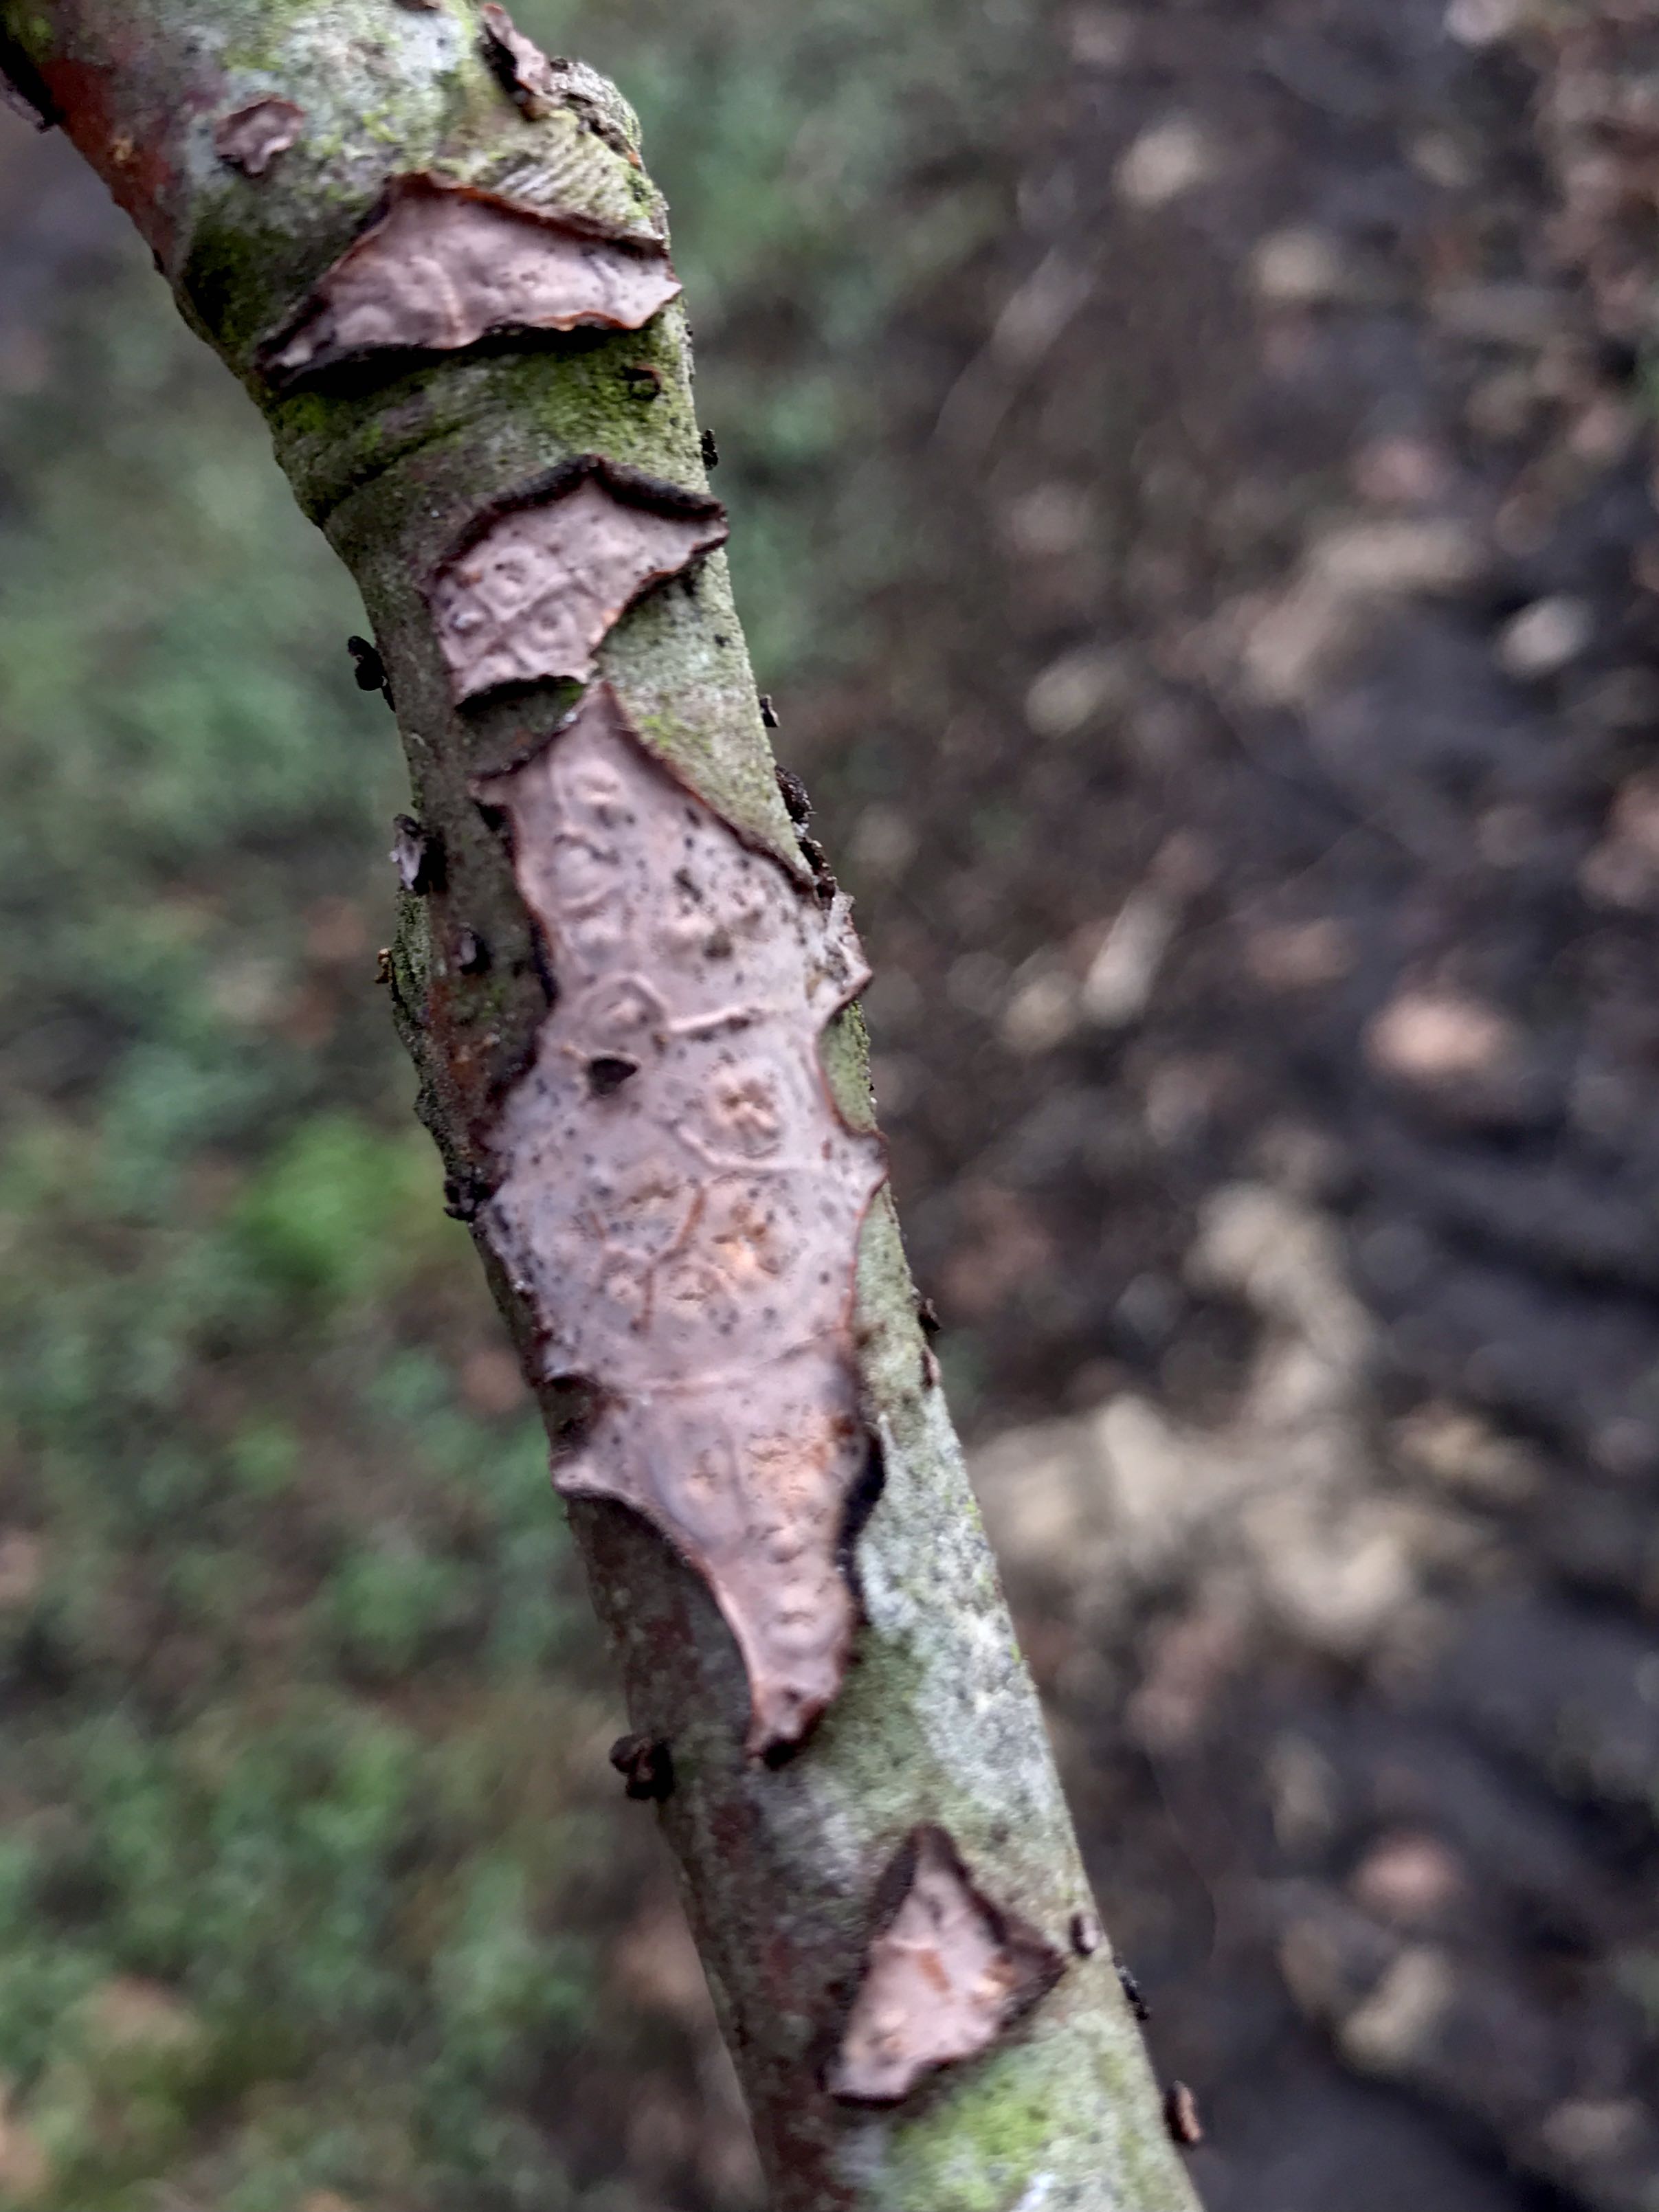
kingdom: Fungi
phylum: Basidiomycota
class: Agaricomycetes
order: Russulales
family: Peniophoraceae
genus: Peniophora
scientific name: Peniophora quercina
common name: ege-voksskind
